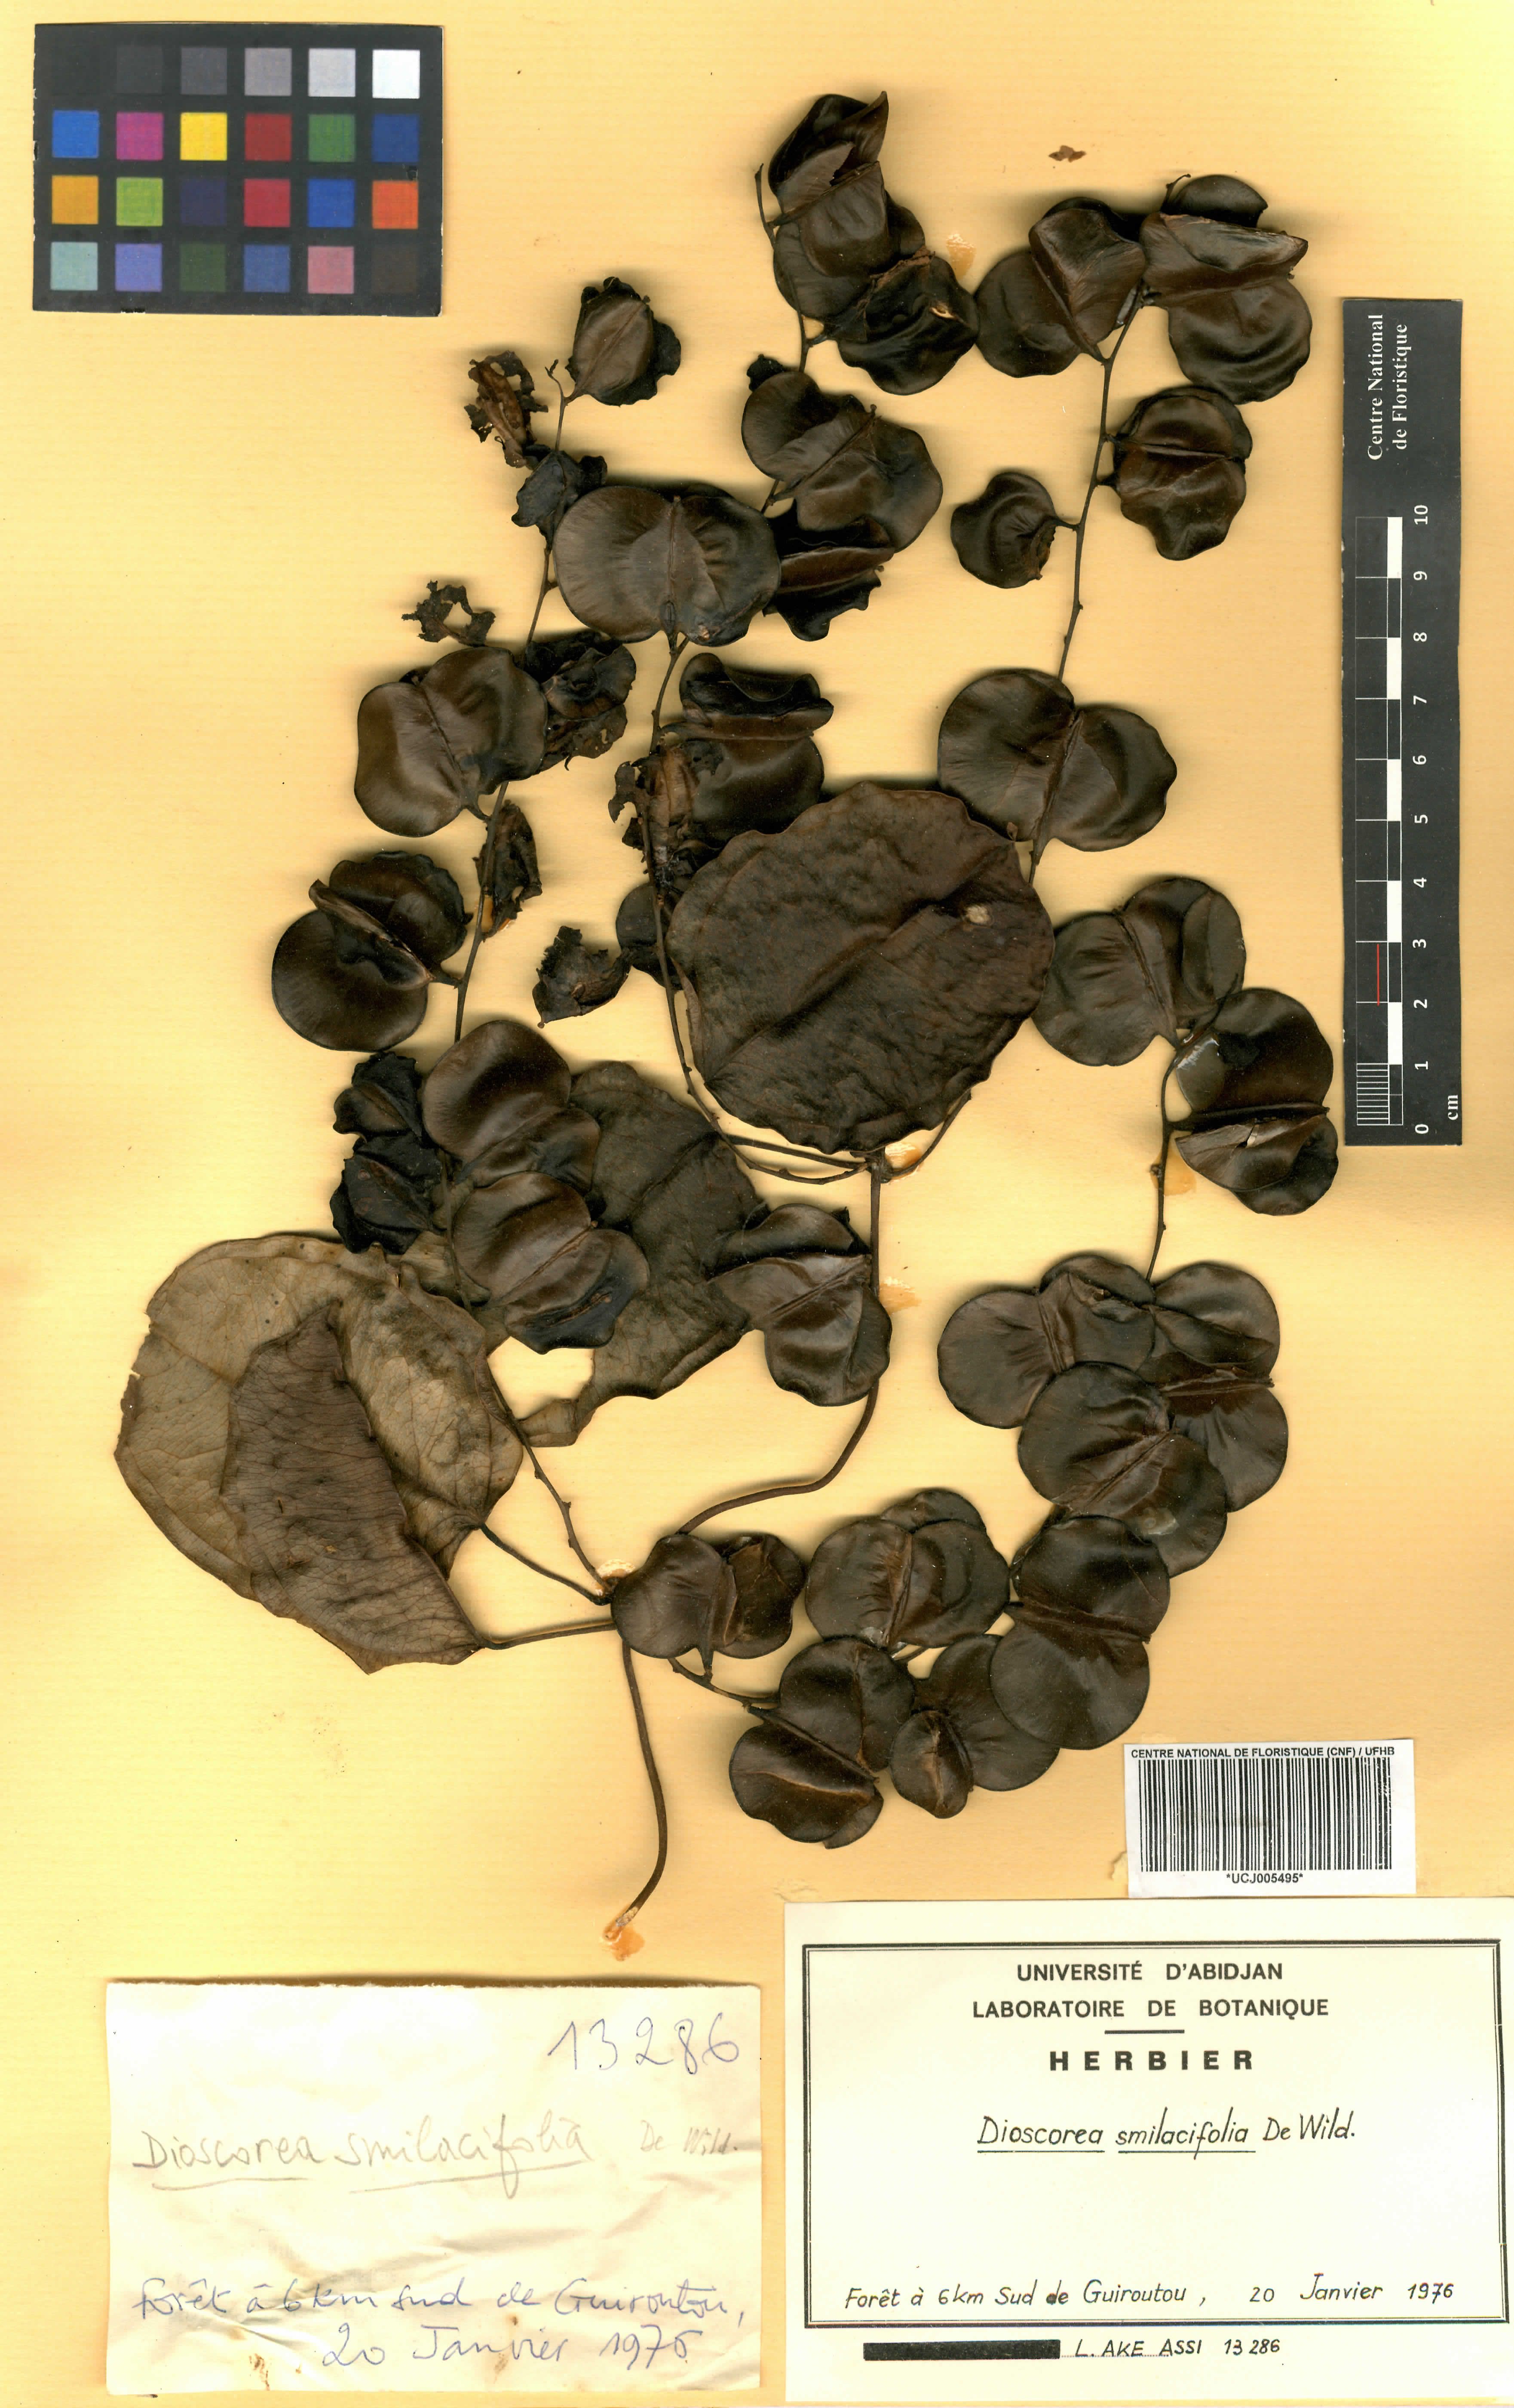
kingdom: Plantae
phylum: Tracheophyta
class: Liliopsida
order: Dioscoreales
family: Dioscoreaceae
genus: Dioscorea
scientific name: Dioscorea smilacifolia
